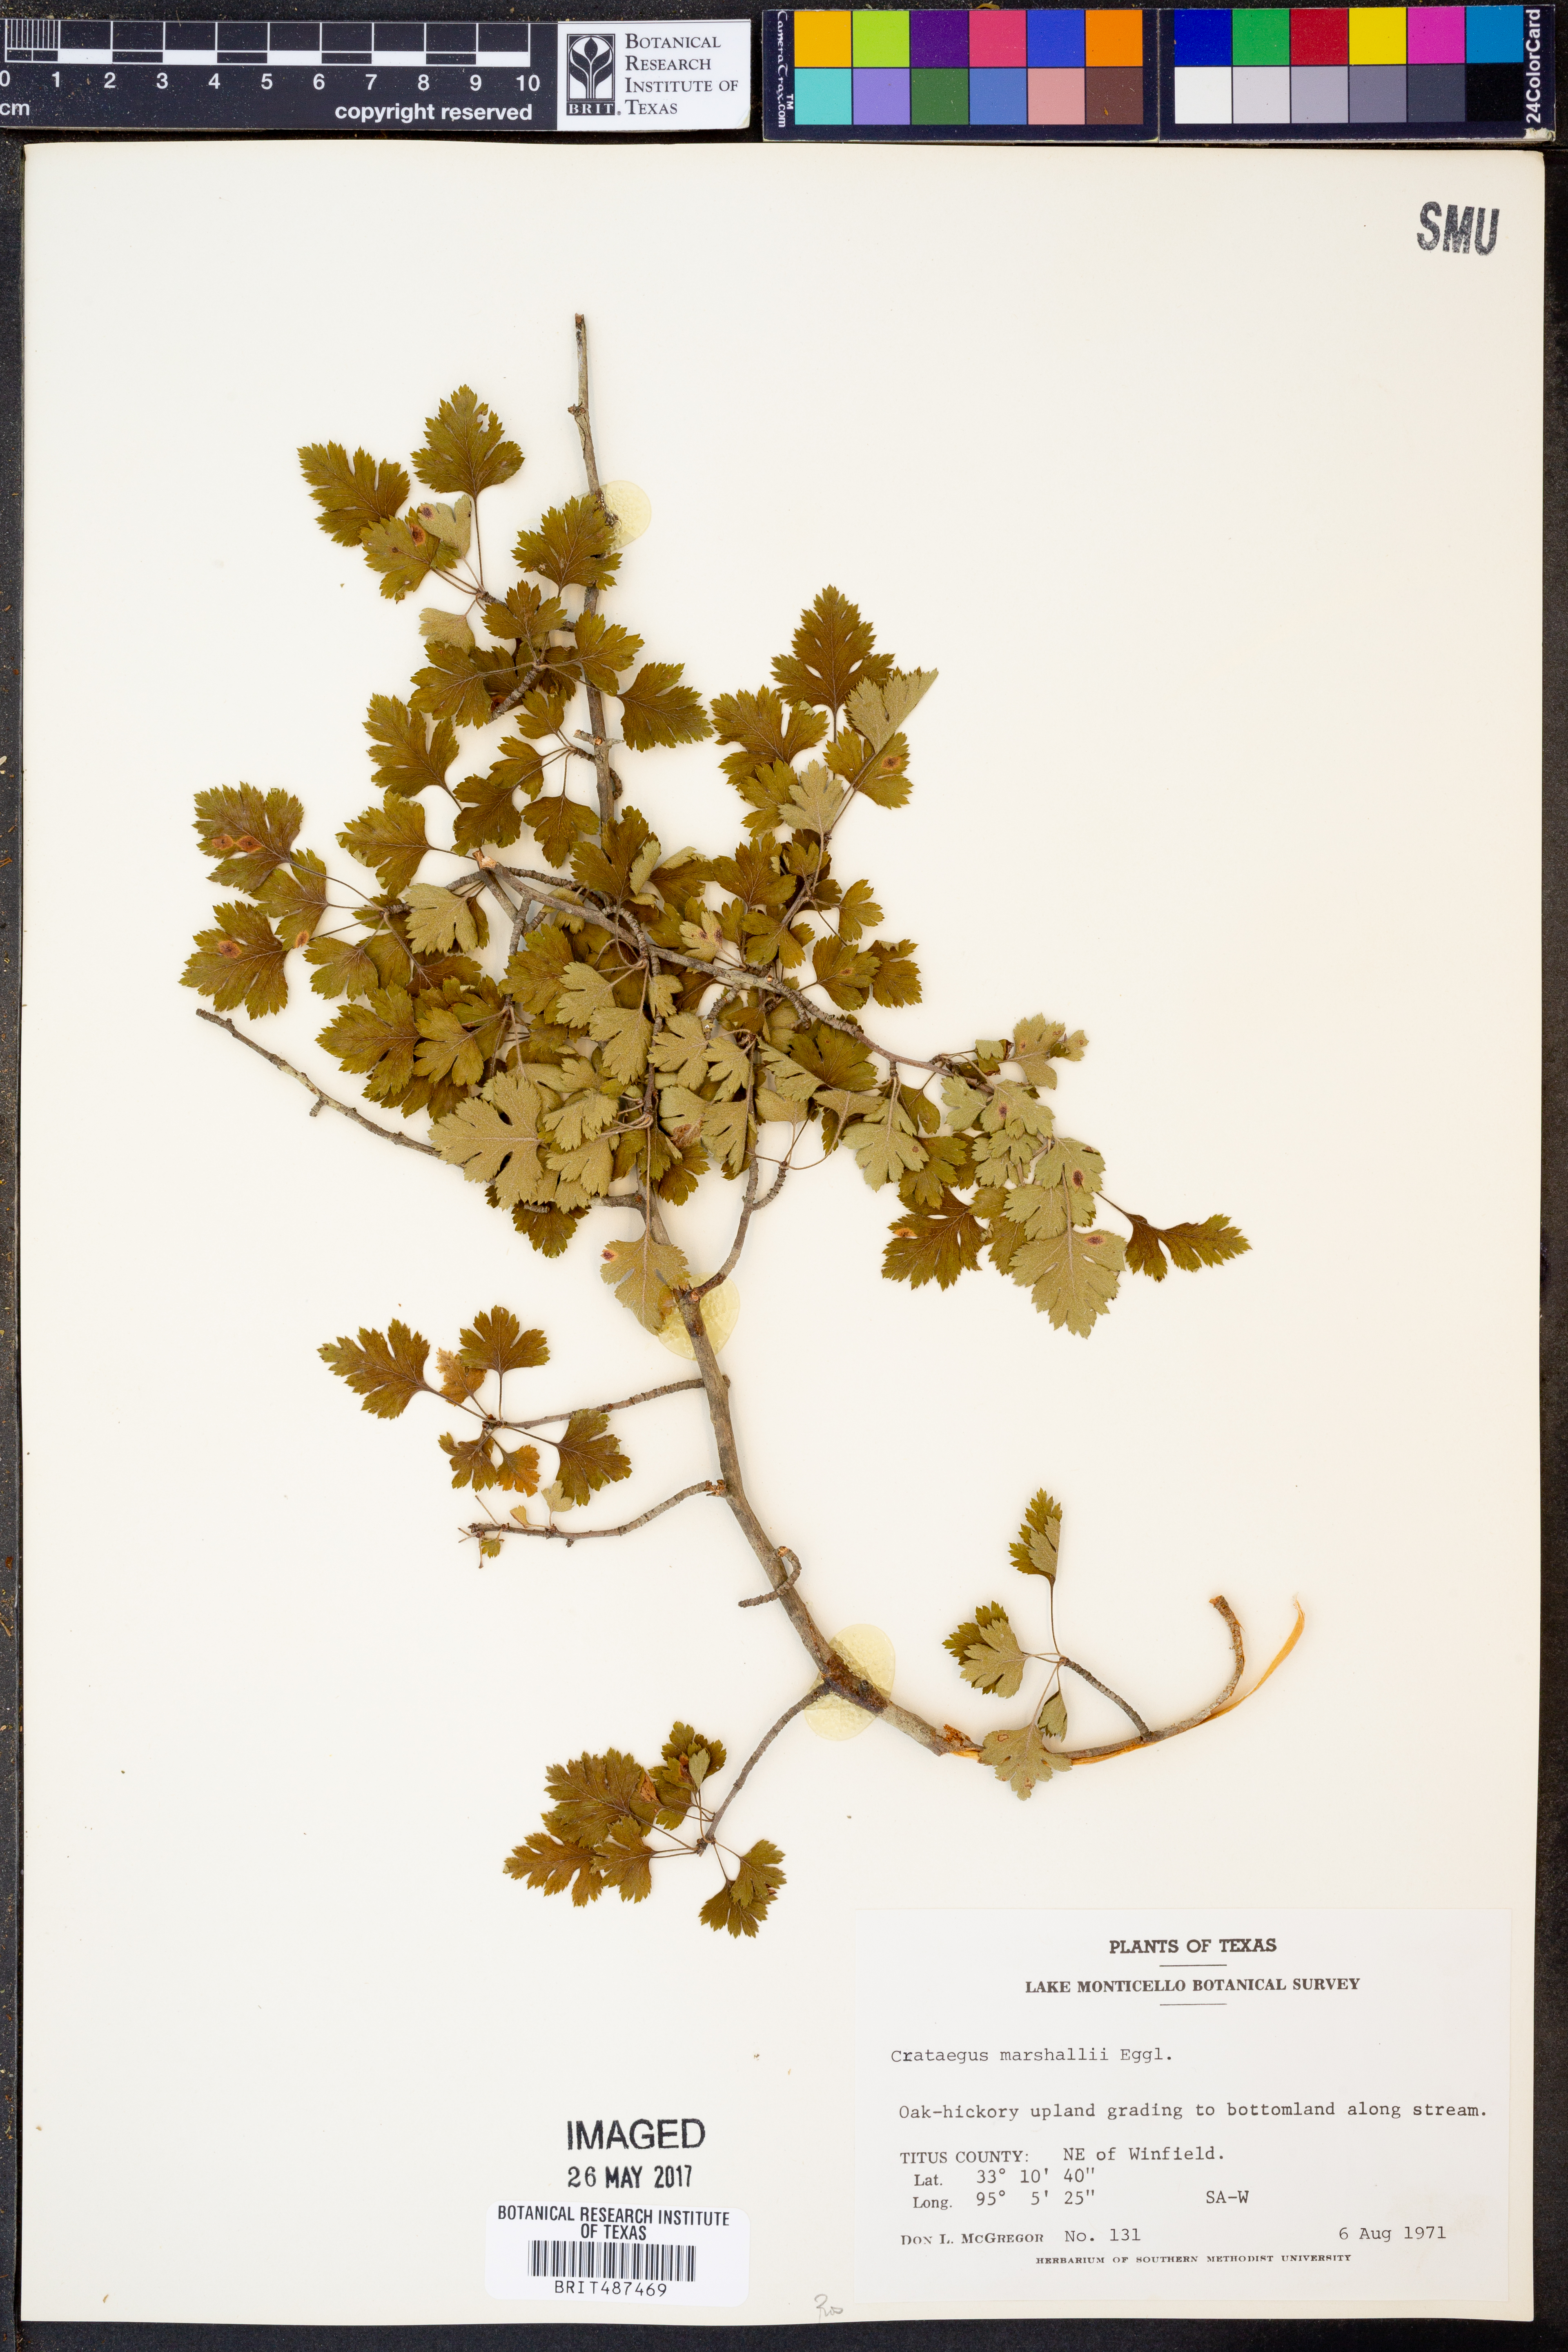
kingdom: Plantae
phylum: Tracheophyta
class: Magnoliopsida
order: Rosales
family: Rosaceae
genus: Crataegus
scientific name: Crataegus marshallii
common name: Parsley-hawthorn
